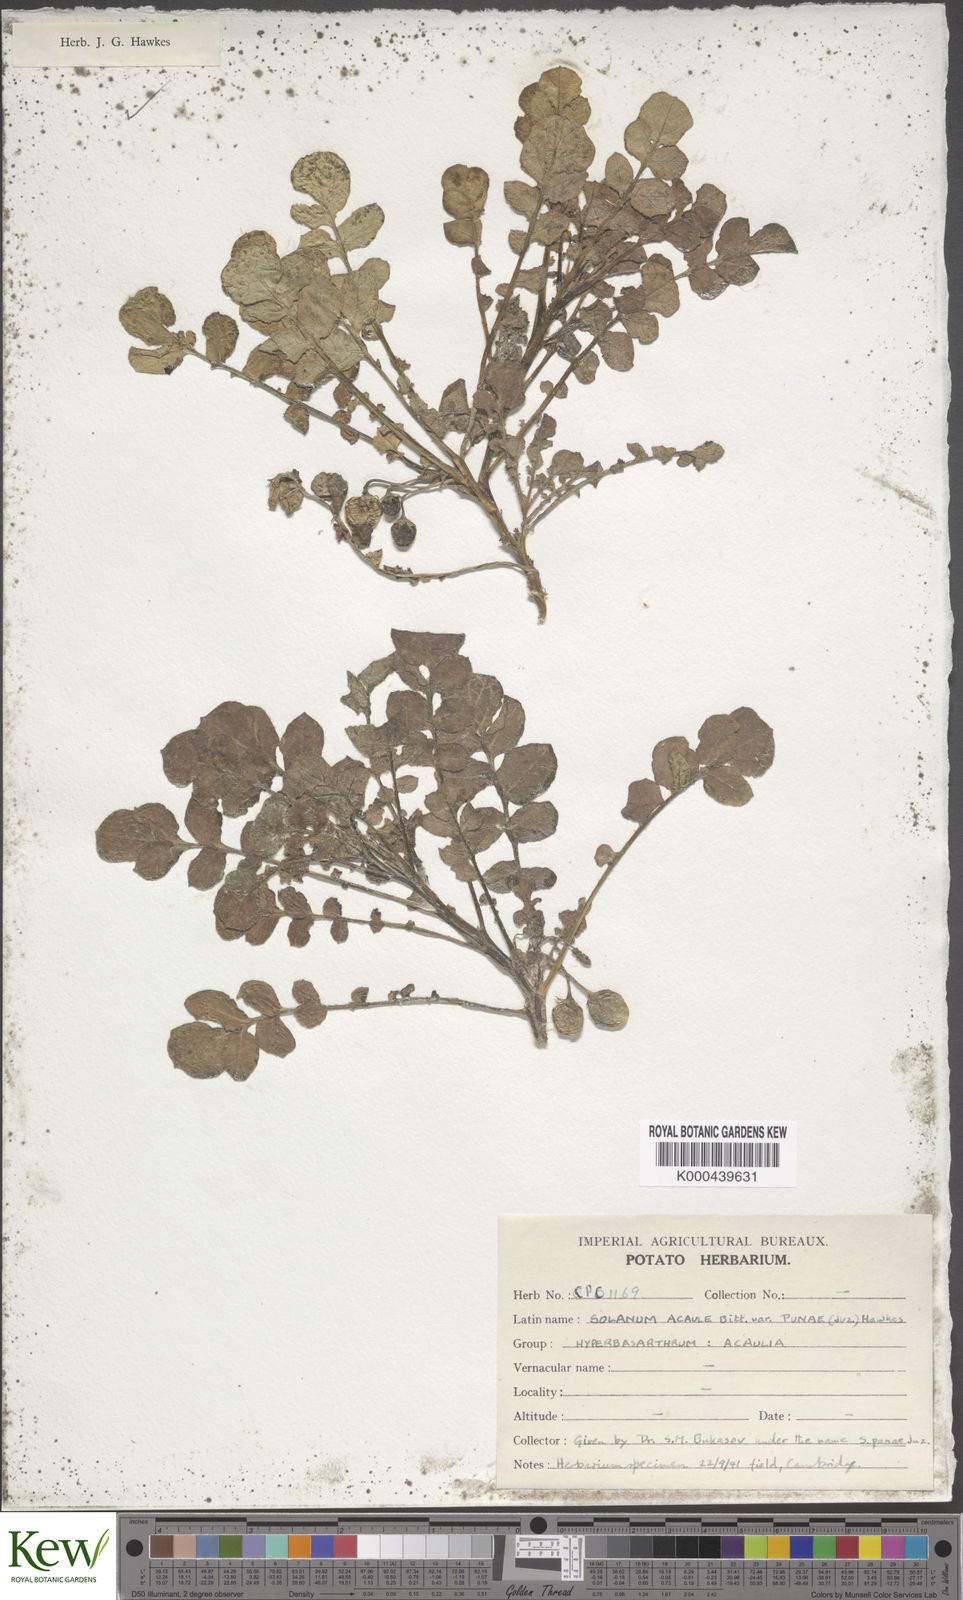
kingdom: Plantae
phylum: Tracheophyta
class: Magnoliopsida
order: Solanales
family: Solanaceae
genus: Solanum
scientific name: Solanum acaule
